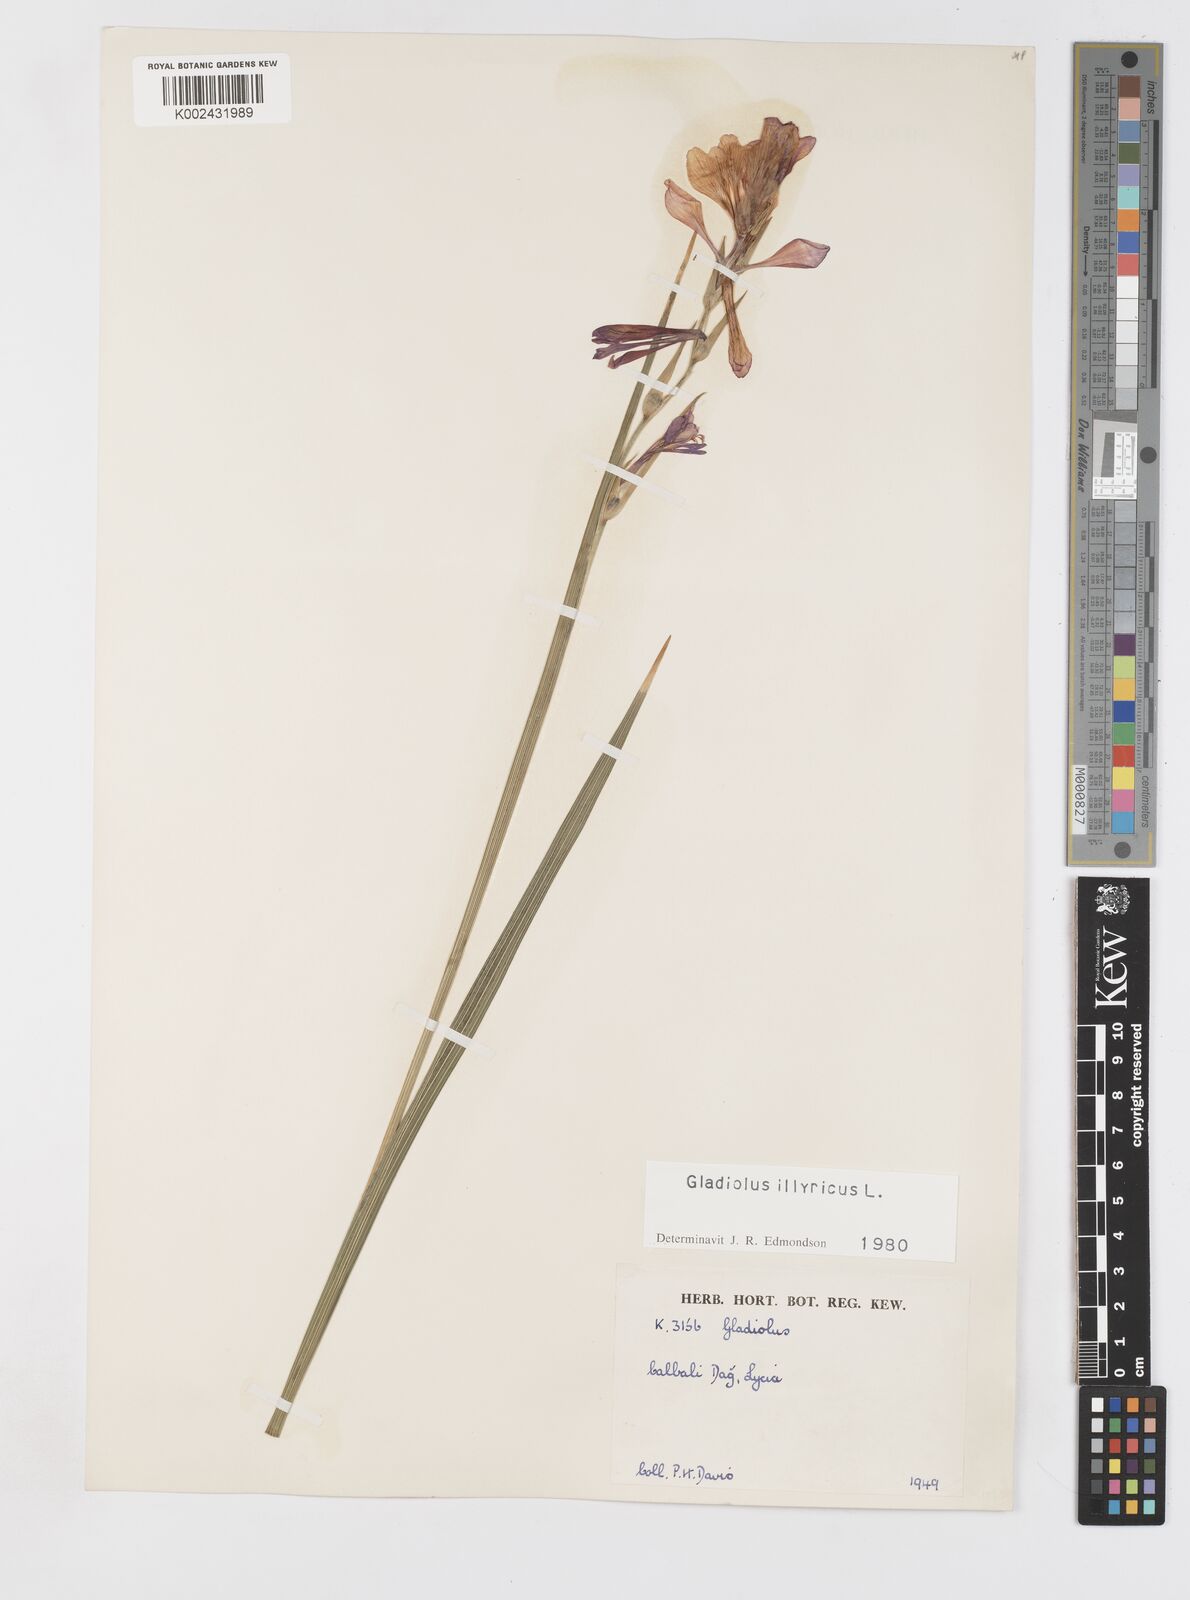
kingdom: Plantae
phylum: Tracheophyta
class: Liliopsida
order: Asparagales
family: Iridaceae
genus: Gladiolus
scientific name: Gladiolus illyricus
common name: Wild gladiolus
